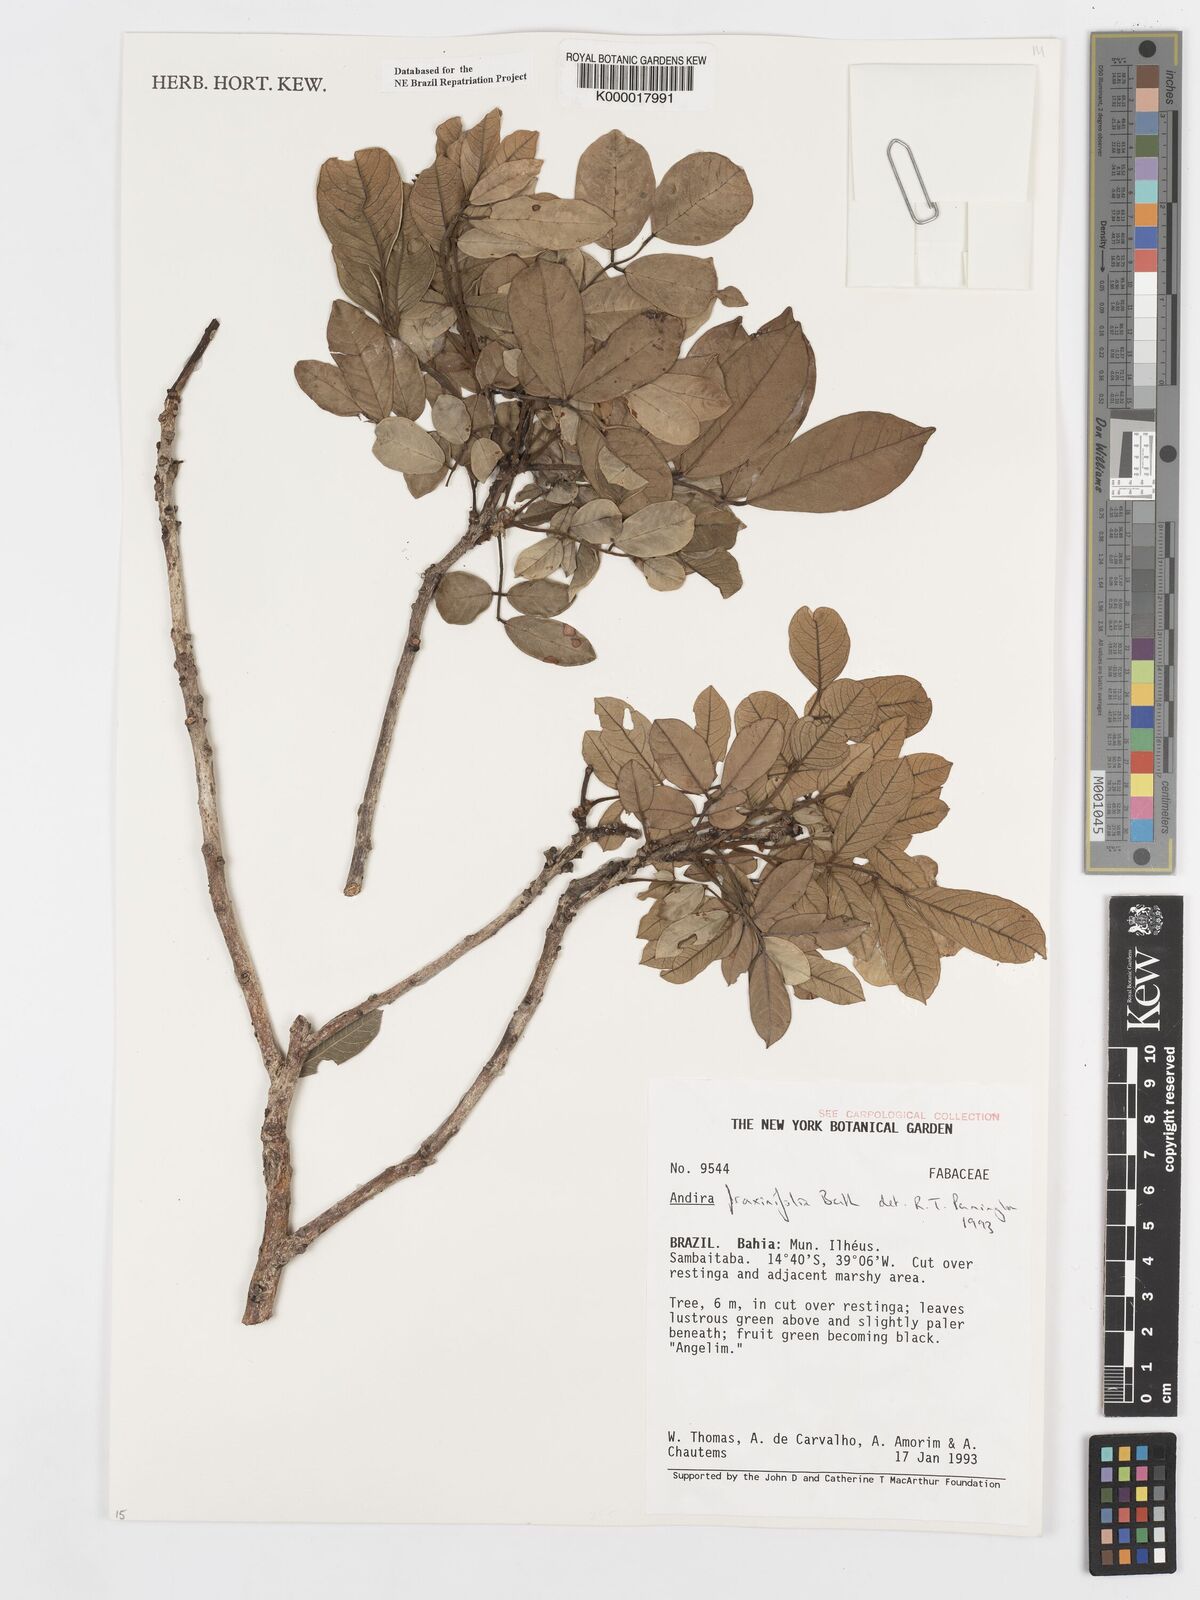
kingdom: Plantae
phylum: Tracheophyta
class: Magnoliopsida
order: Fabales
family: Fabaceae
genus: Andira
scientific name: Andira fraxinifolia
